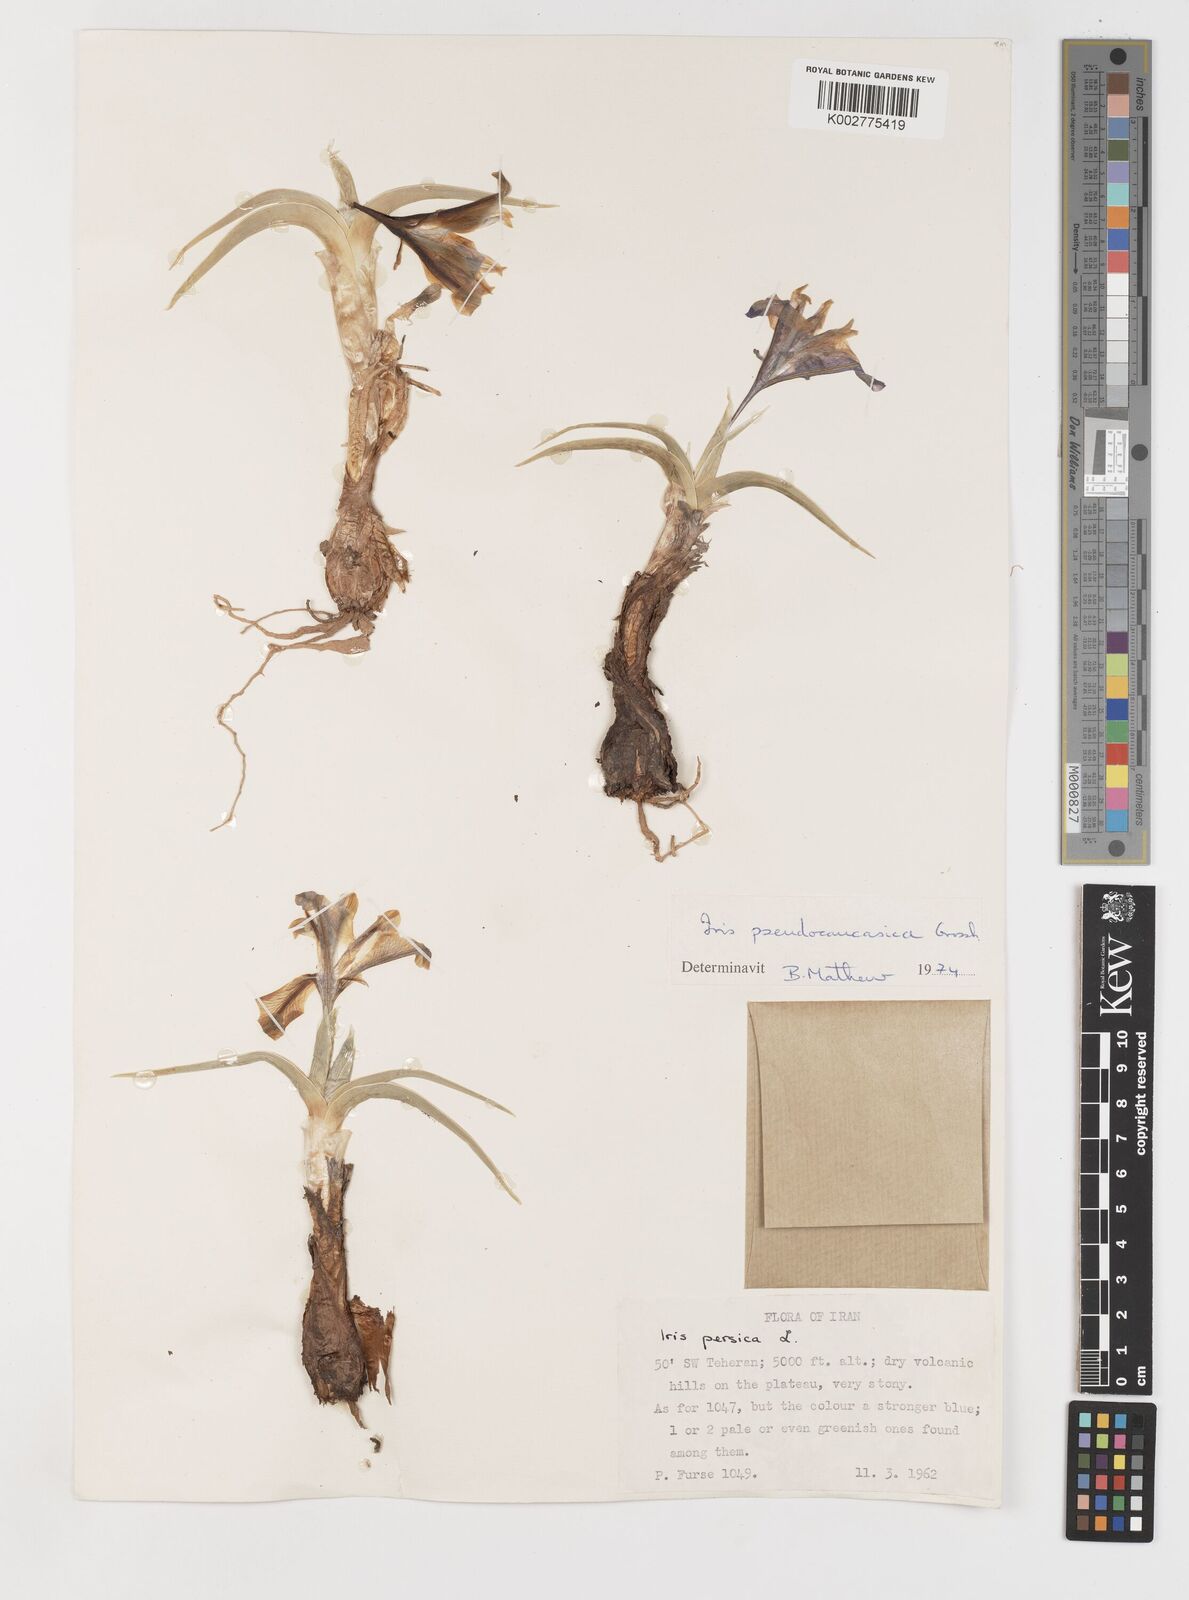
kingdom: Plantae
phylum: Tracheophyta
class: Liliopsida
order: Asparagales
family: Iridaceae
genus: Iris
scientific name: Iris pseudocaucasica
